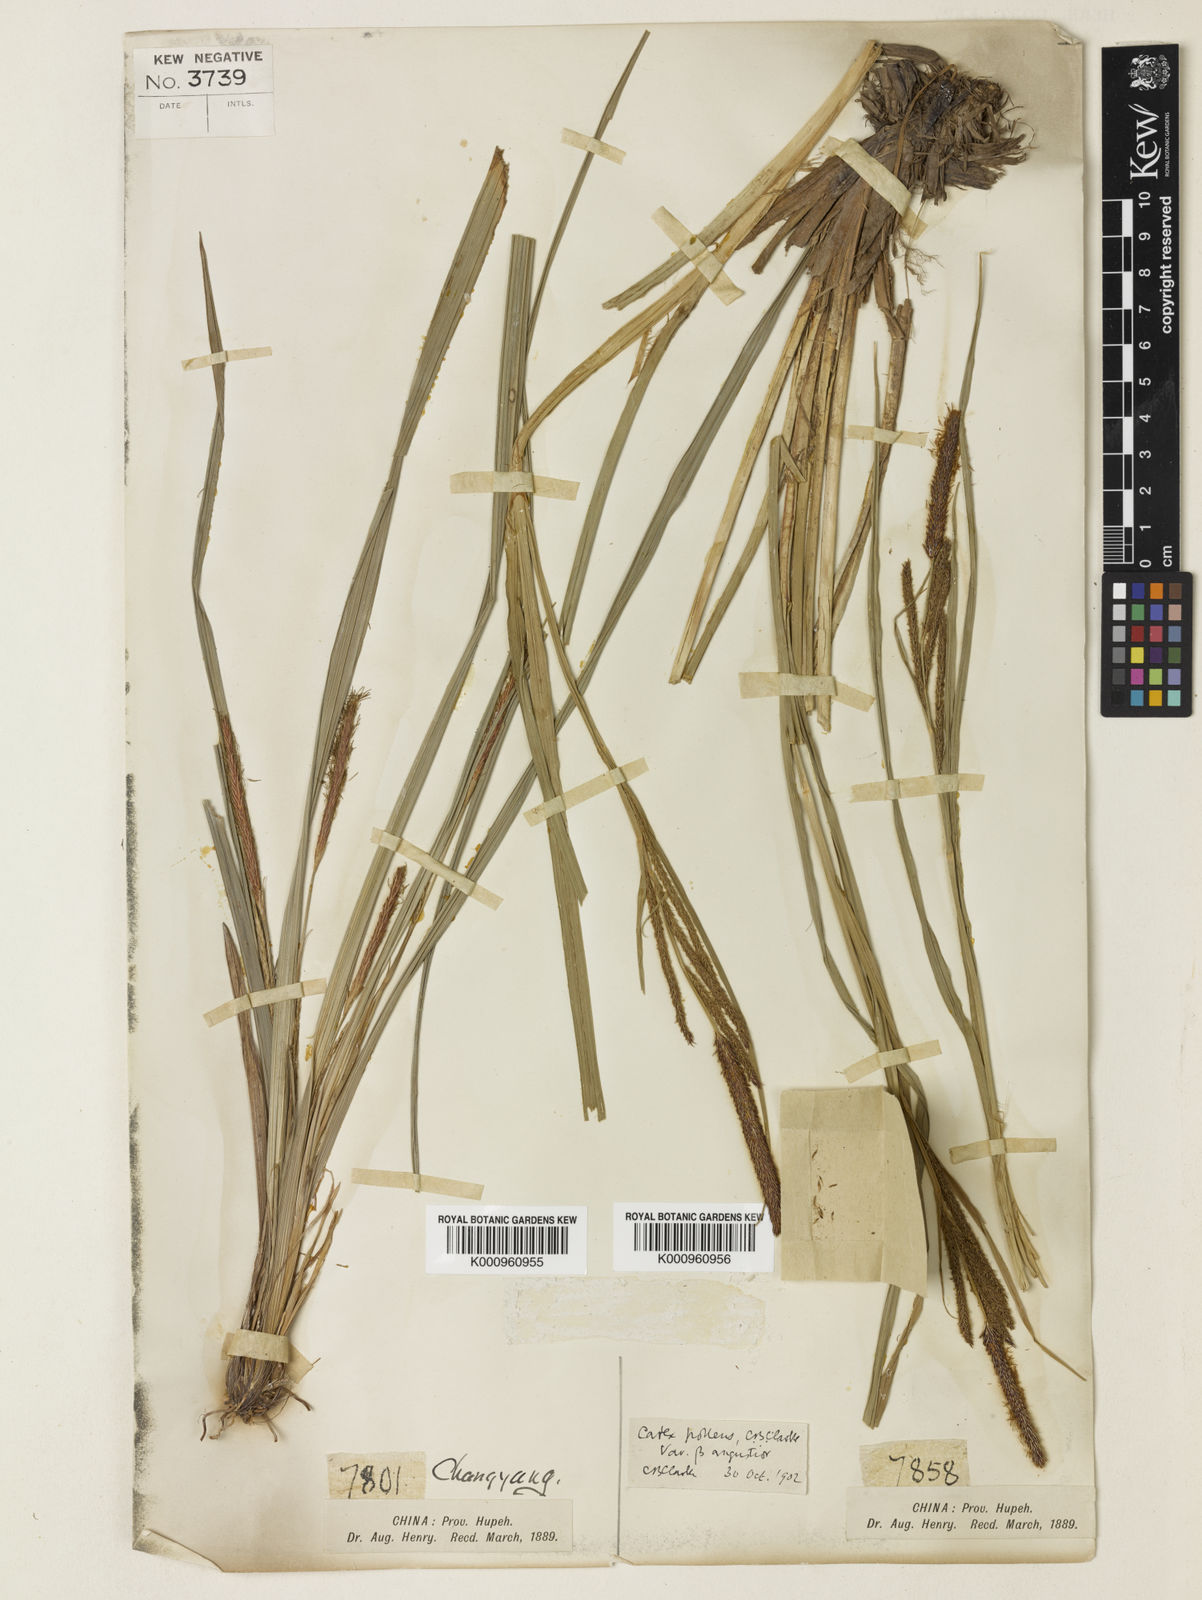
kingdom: Plantae
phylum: Tracheophyta
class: Liliopsida
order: Poales
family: Cyperaceae
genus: Carex
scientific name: Carex dispalata
